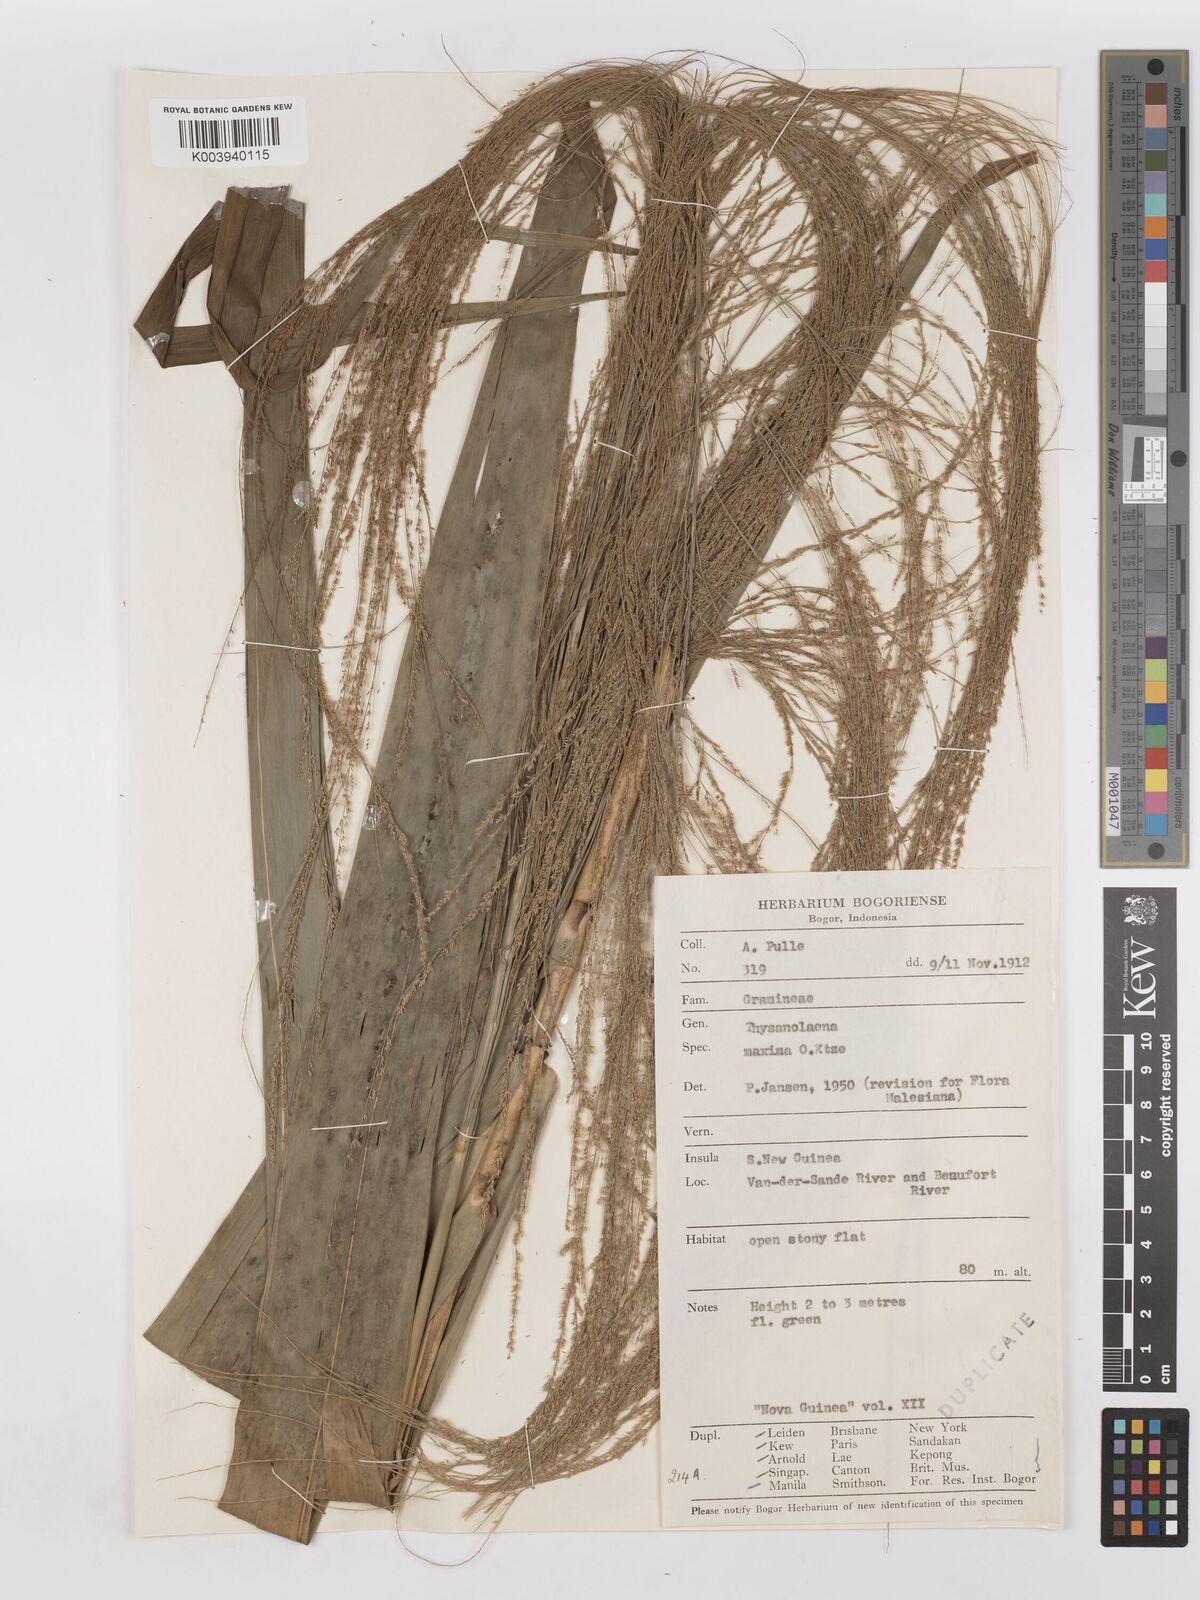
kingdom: Plantae
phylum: Tracheophyta
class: Liliopsida
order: Poales
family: Poaceae
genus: Thysanolaena
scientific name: Thysanolaena latifolia
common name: Tiger grass
